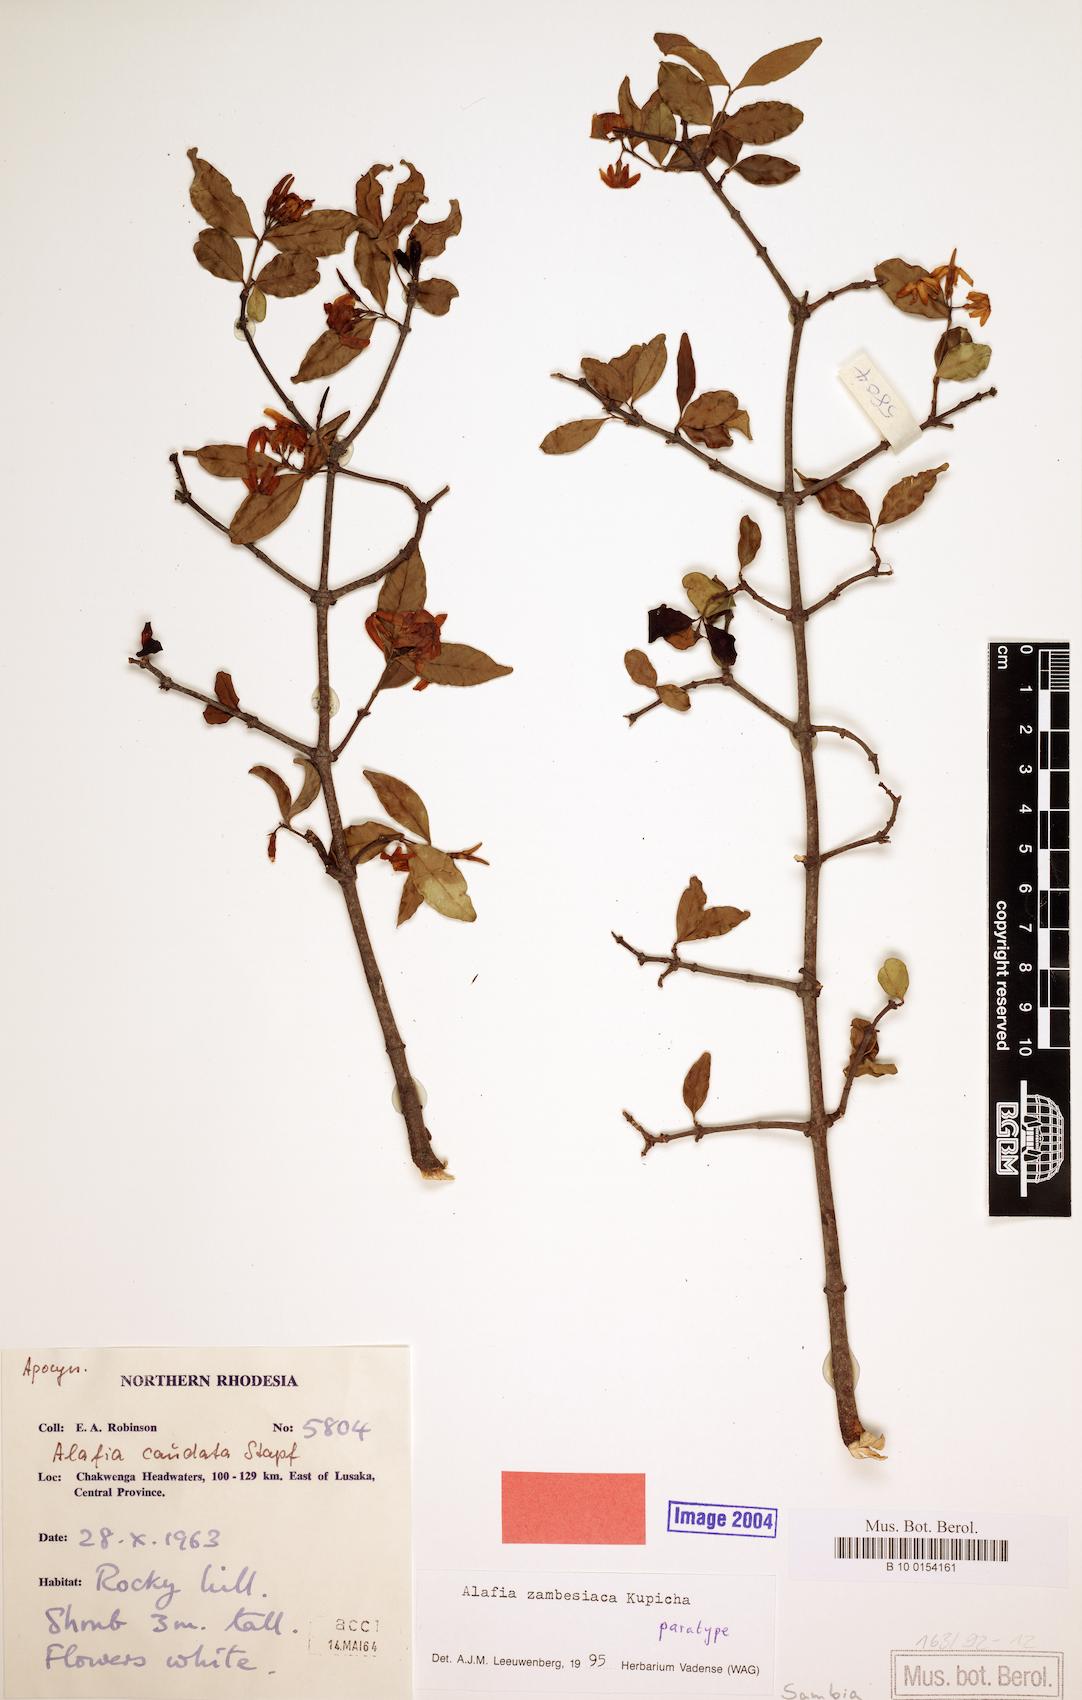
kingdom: Plantae
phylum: Tracheophyta
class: Magnoliopsida
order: Gentianales
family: Apocynaceae
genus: Alafia
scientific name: Alafia zambesiaca
